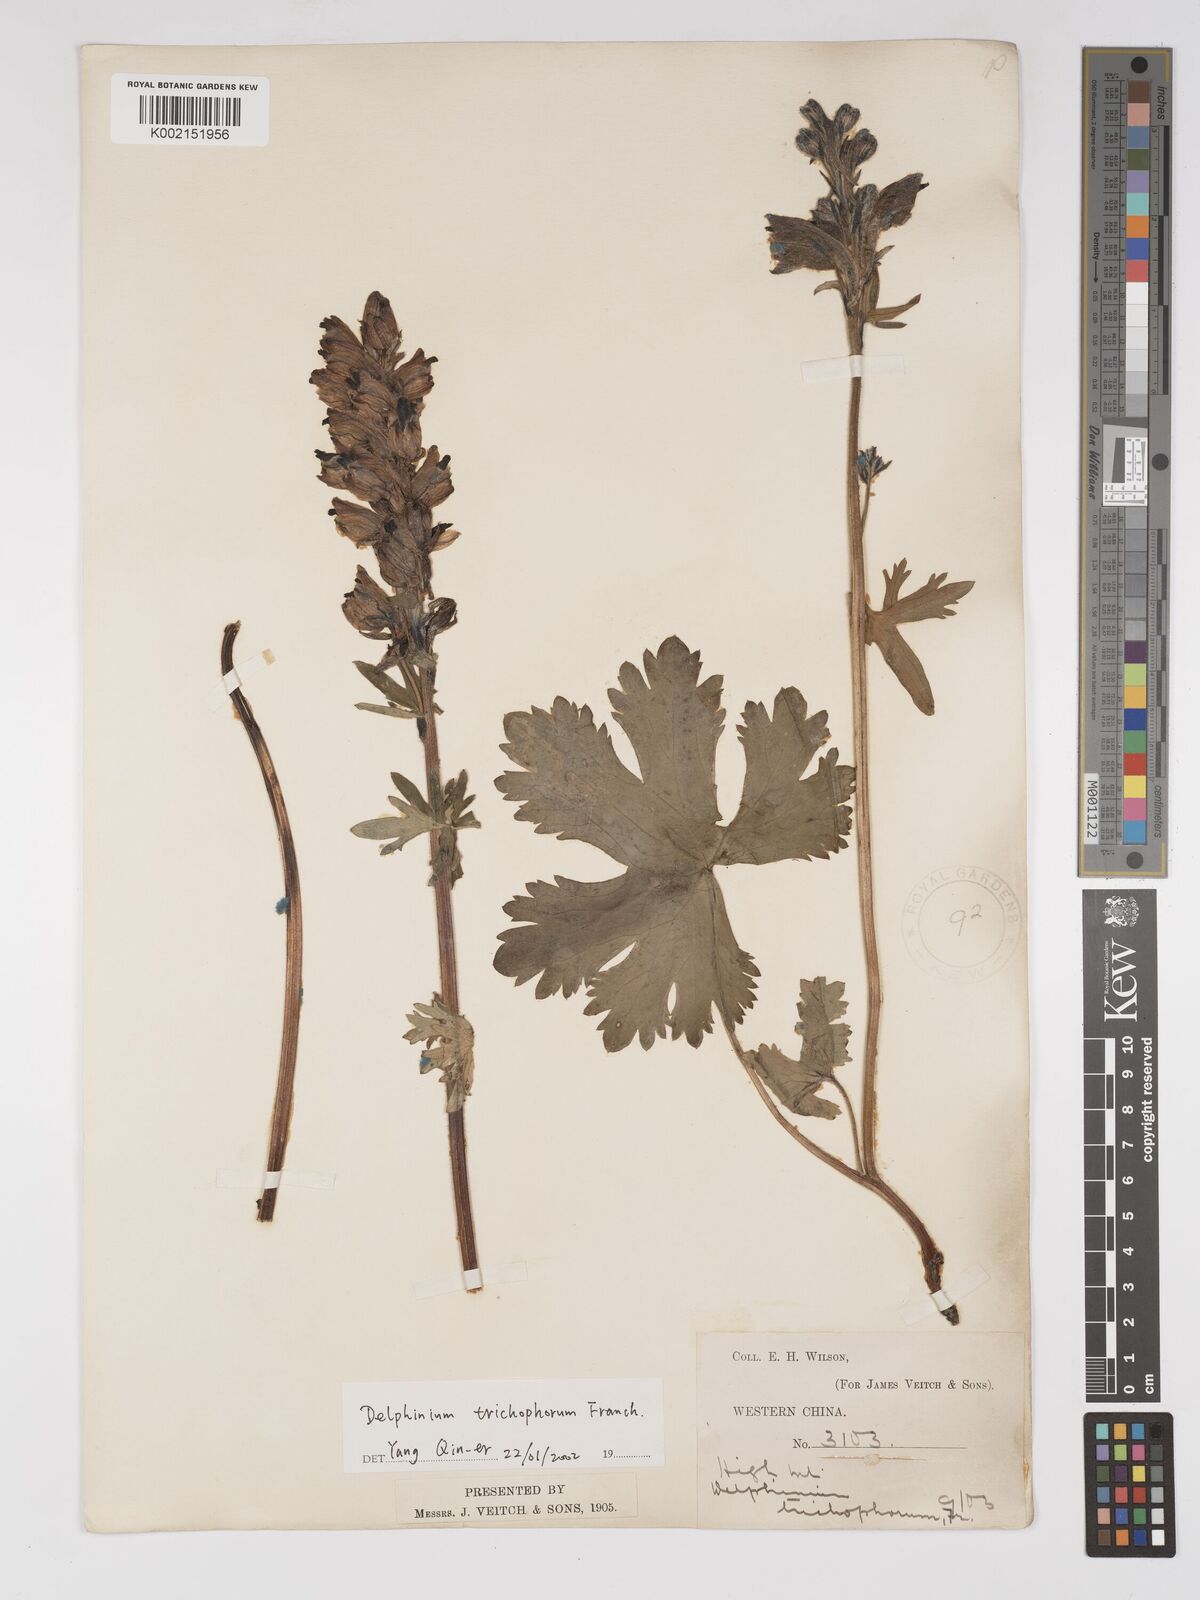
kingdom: Plantae
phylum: Tracheophyta
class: Magnoliopsida
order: Ranunculales
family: Ranunculaceae
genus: Delphinium
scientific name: Delphinium trichophorum
